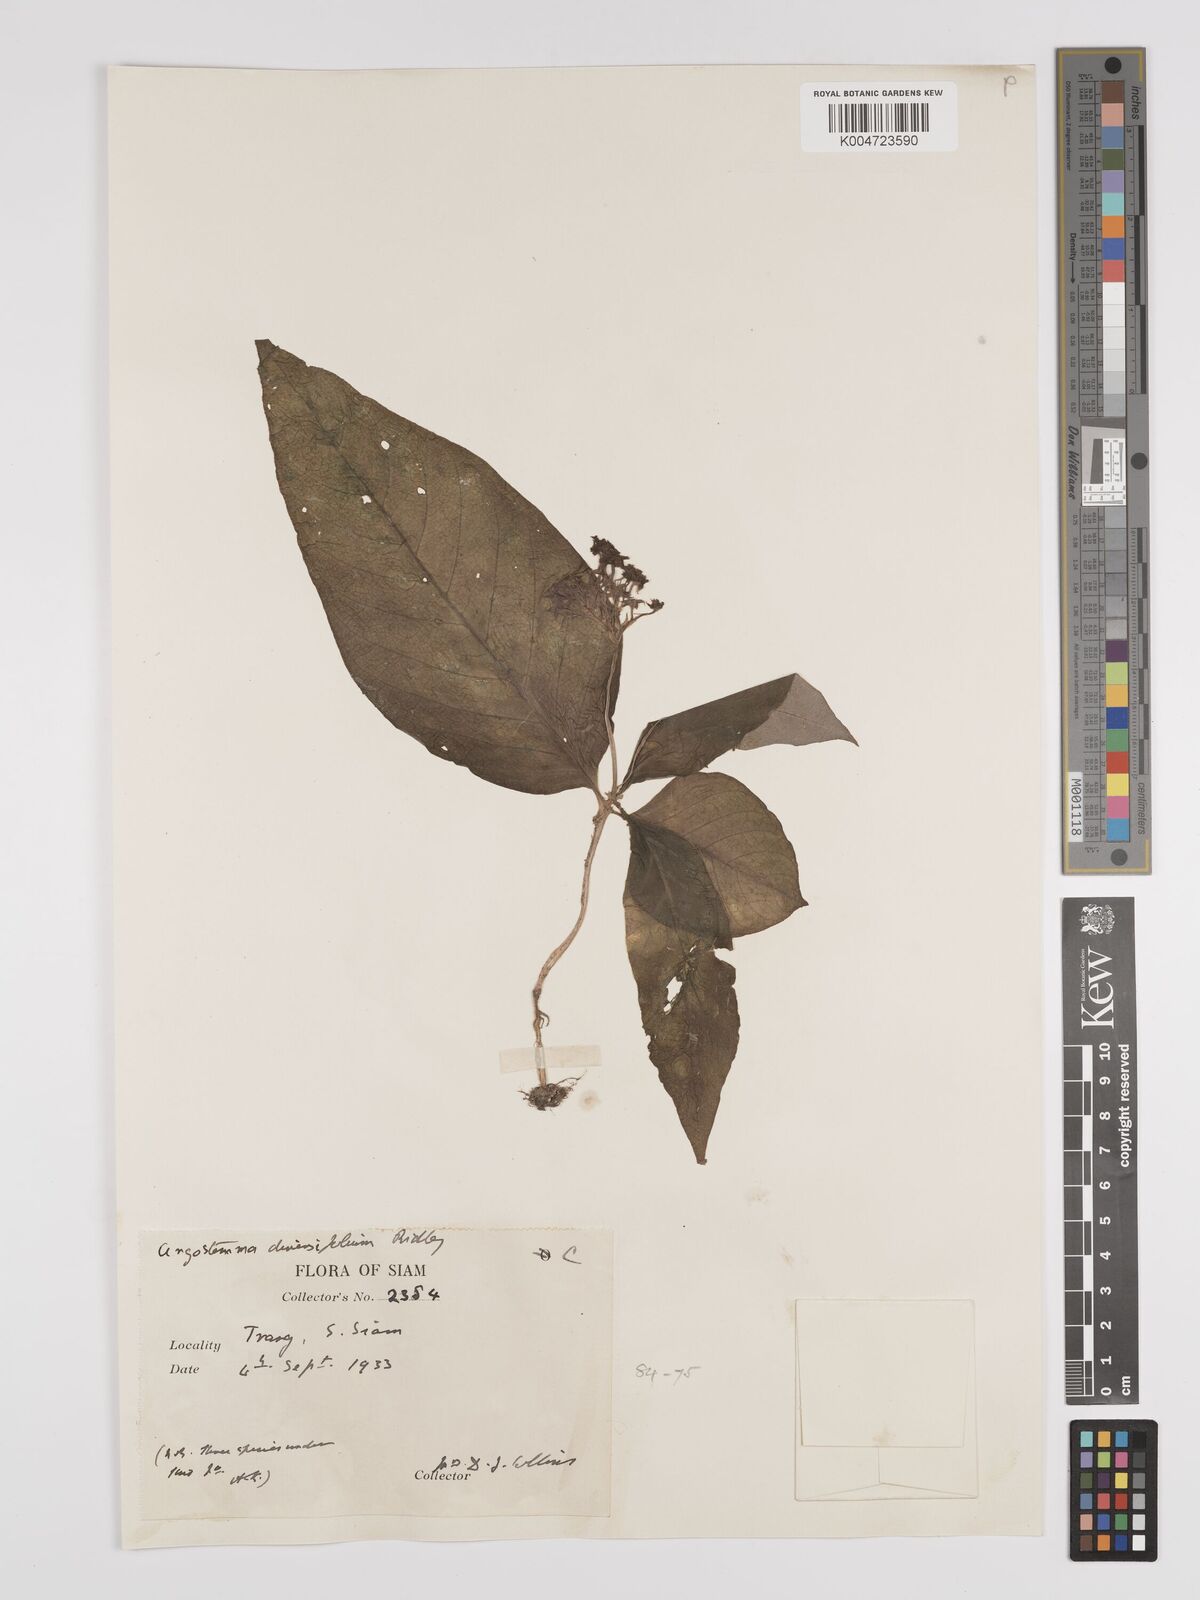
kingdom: Plantae
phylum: Tracheophyta
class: Magnoliopsida
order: Gentianales
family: Rubiaceae
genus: Argostemma
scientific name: Argostemma diversifolium
